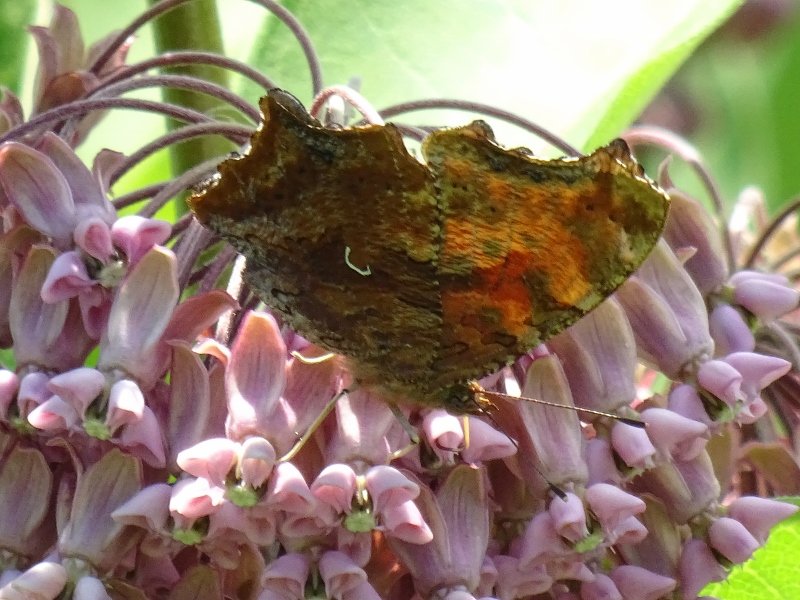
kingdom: Animalia
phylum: Arthropoda
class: Insecta
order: Lepidoptera
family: Nymphalidae
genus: Polygonia
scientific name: Polygonia comma
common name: Eastern Comma
